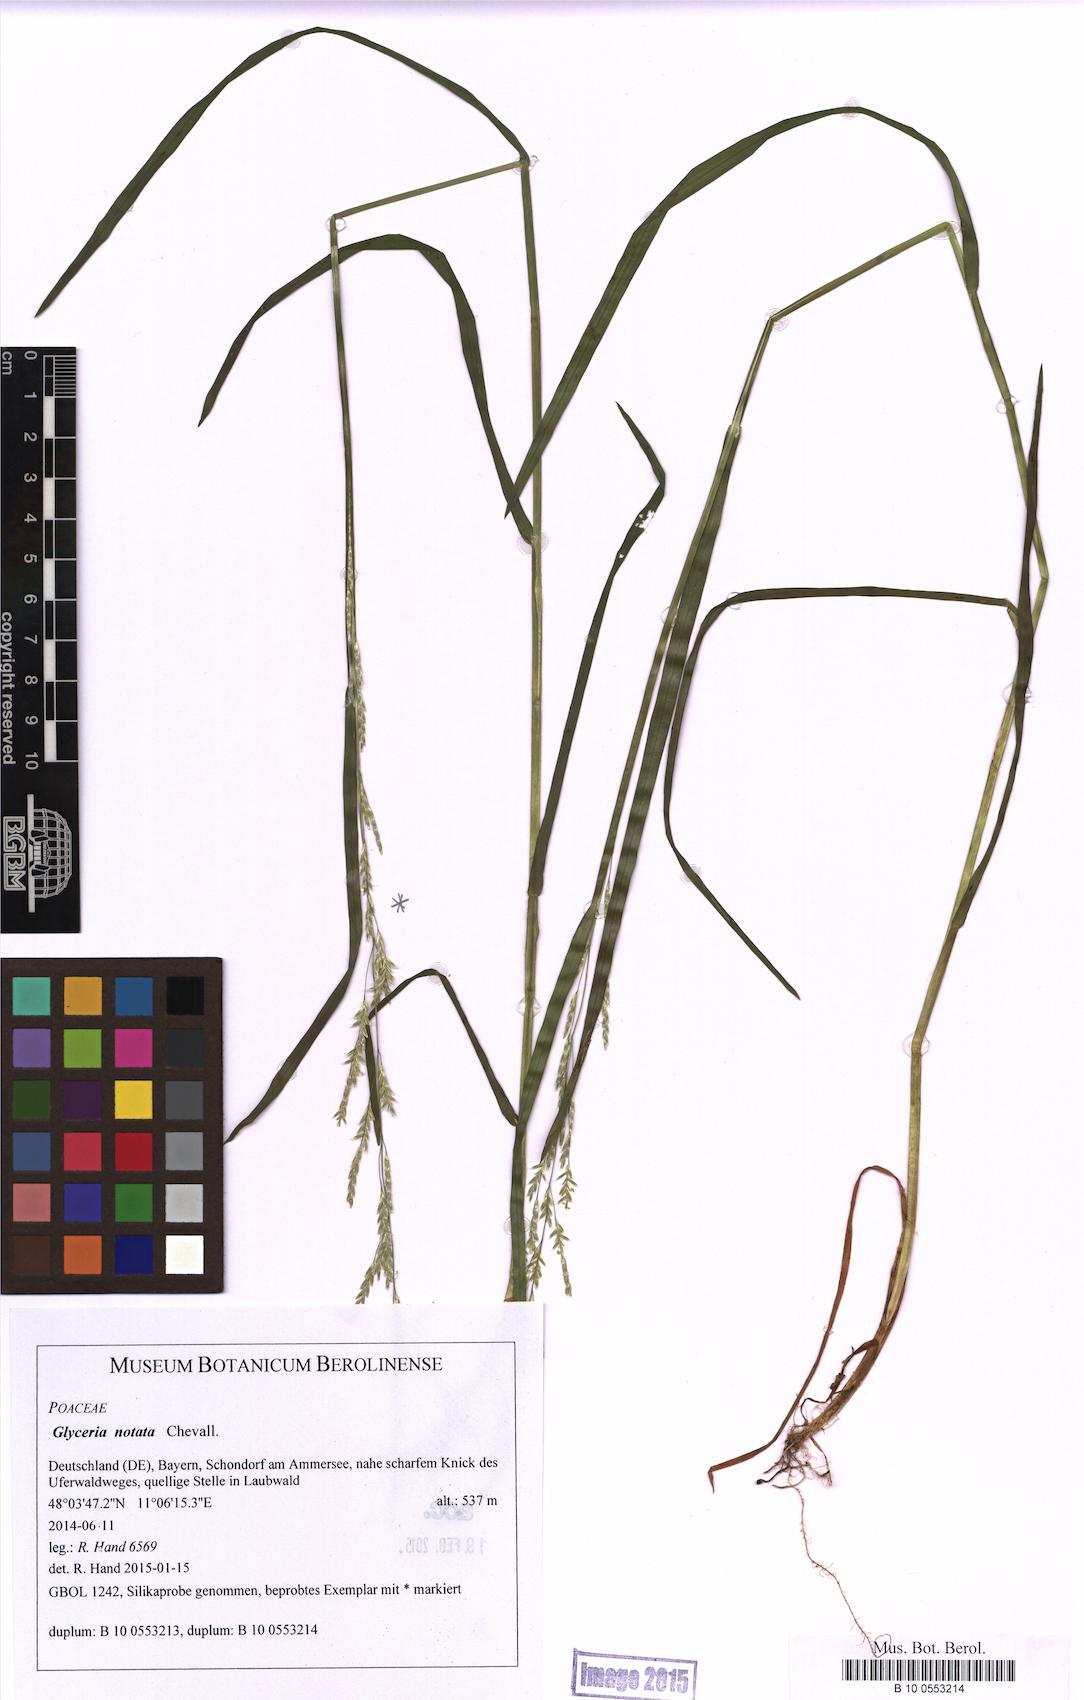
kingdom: Plantae
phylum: Tracheophyta
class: Liliopsida
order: Poales
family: Poaceae
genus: Glyceria
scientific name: Glyceria notata
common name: Plicate sweet-grass
